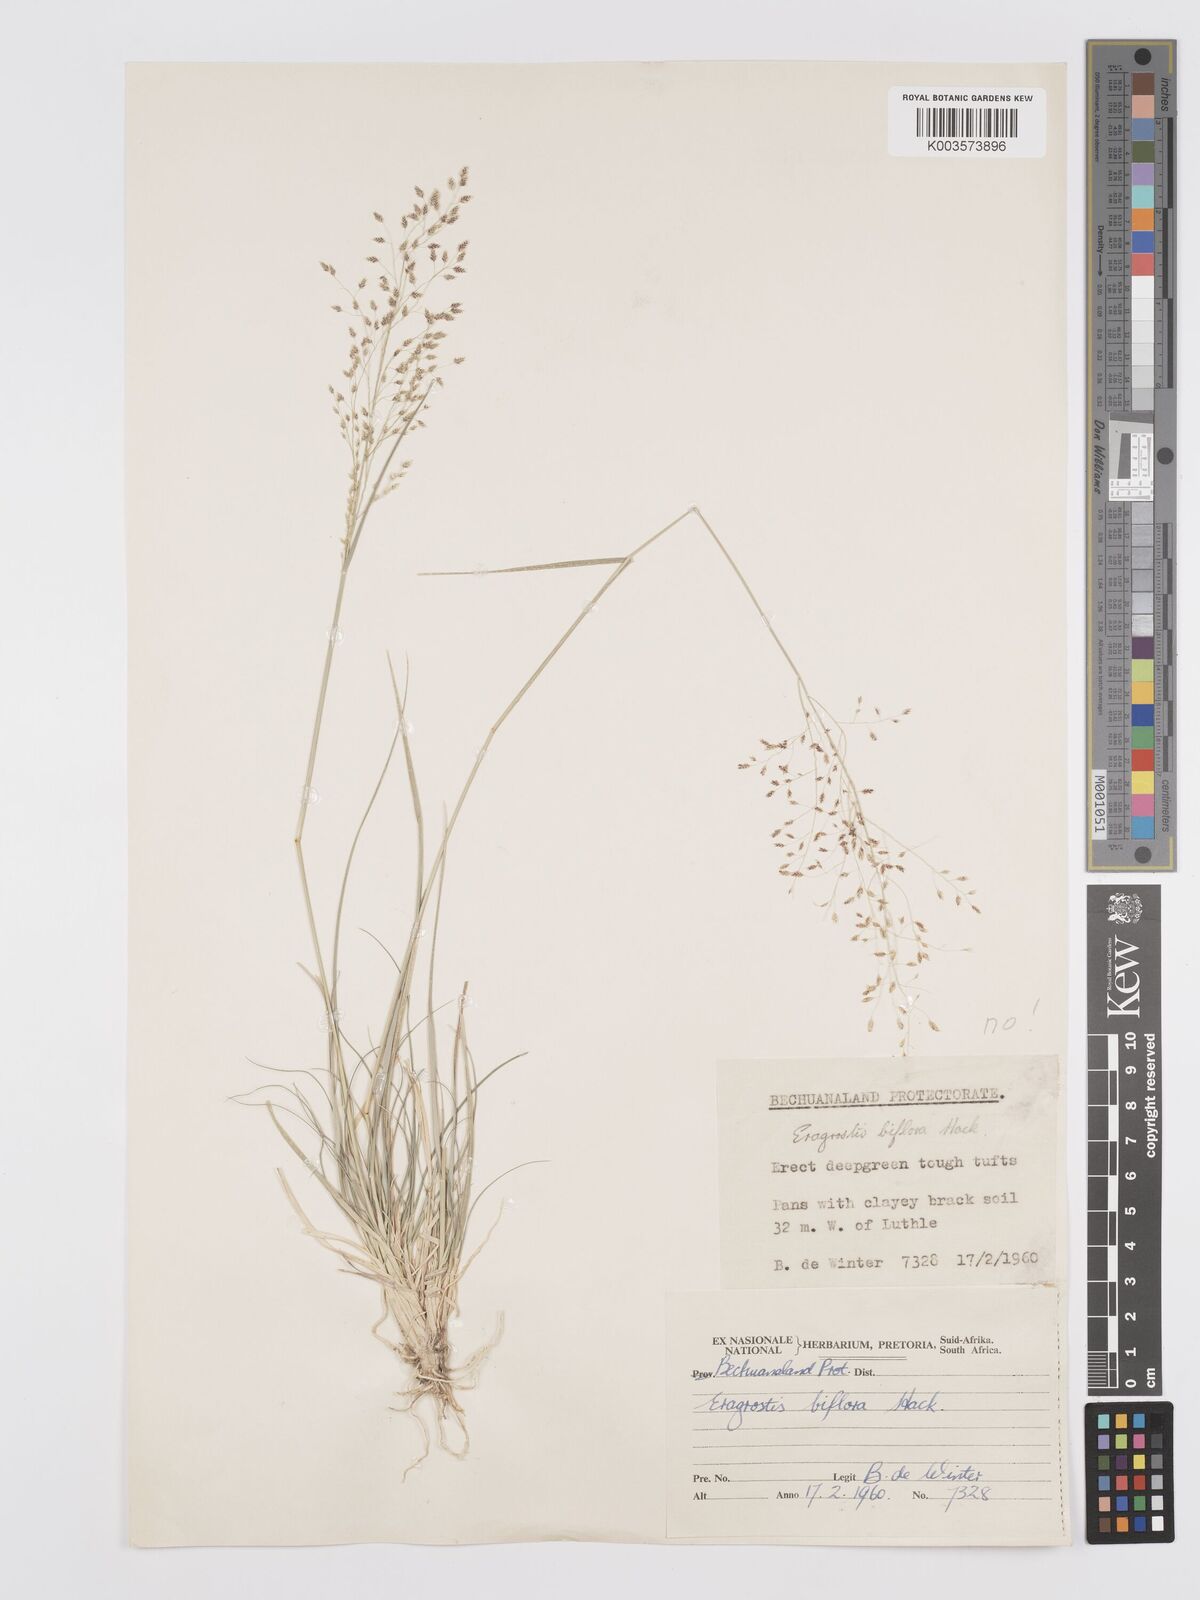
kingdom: Plantae
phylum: Tracheophyta
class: Liliopsida
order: Poales
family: Poaceae
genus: Eragrostis
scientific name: Eragrostis
